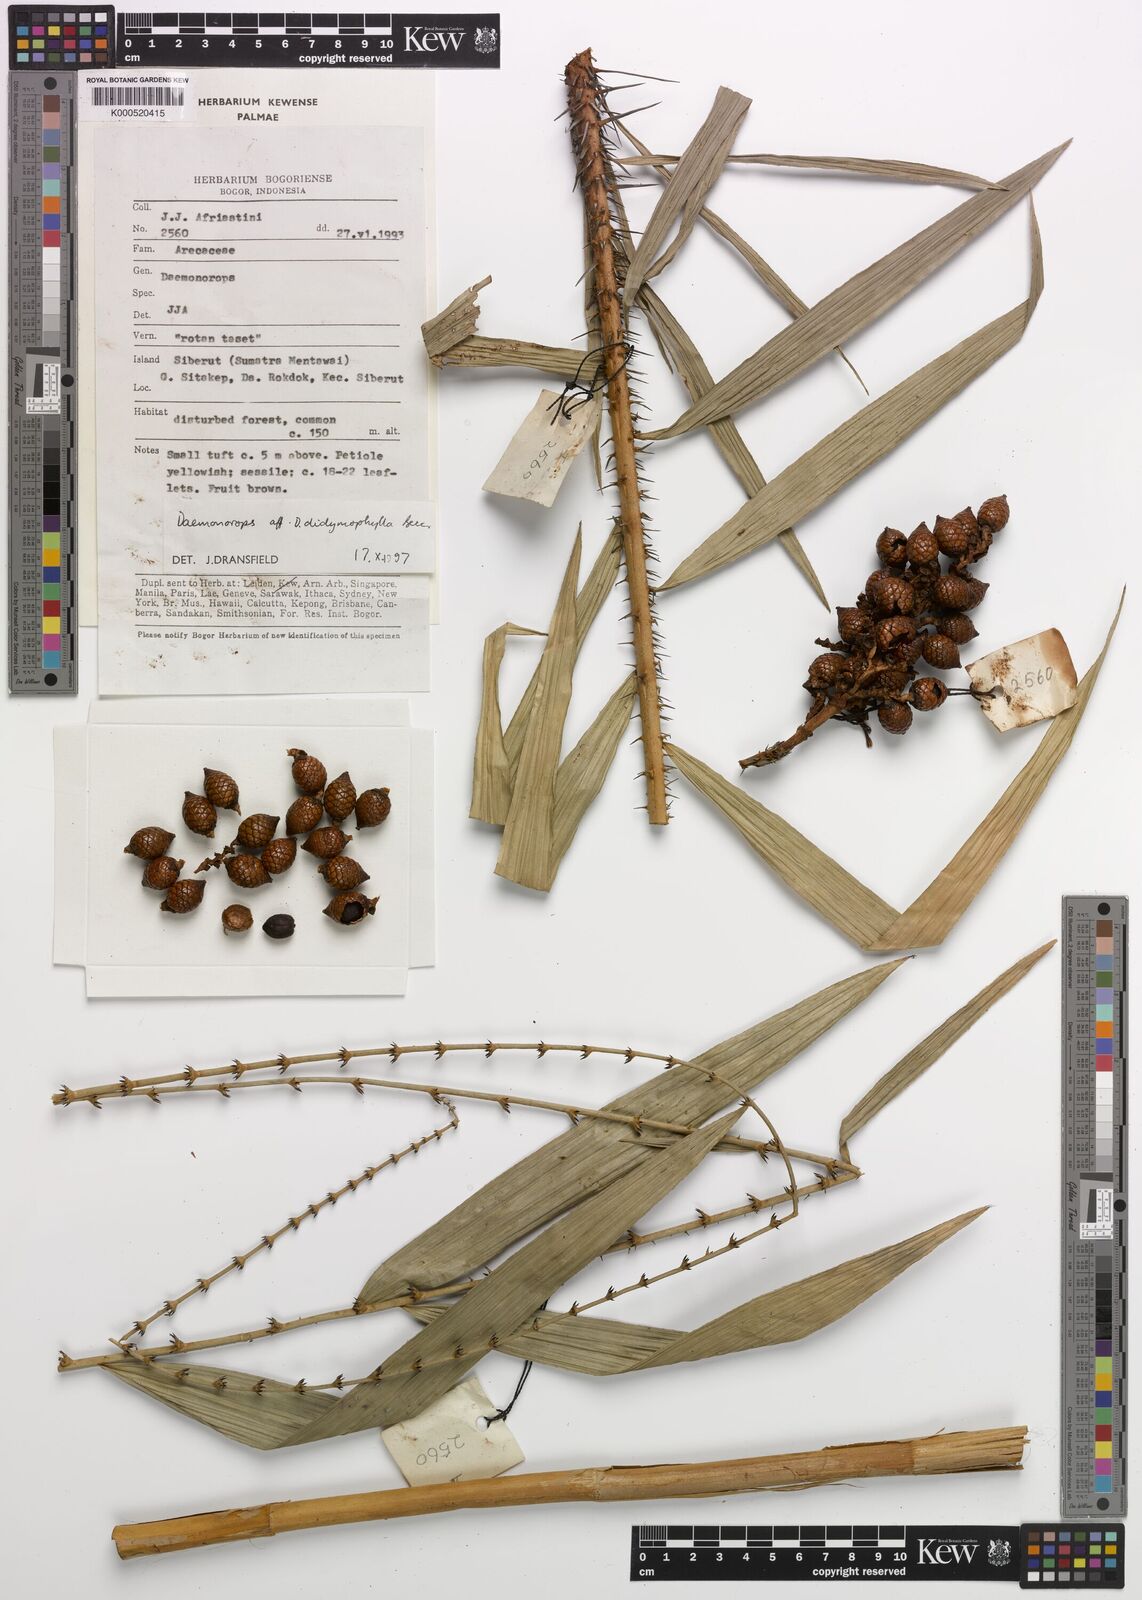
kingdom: Plantae
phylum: Tracheophyta
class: Liliopsida
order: Arecales
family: Arecaceae
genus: Calamus
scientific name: Calamus dracunculus
